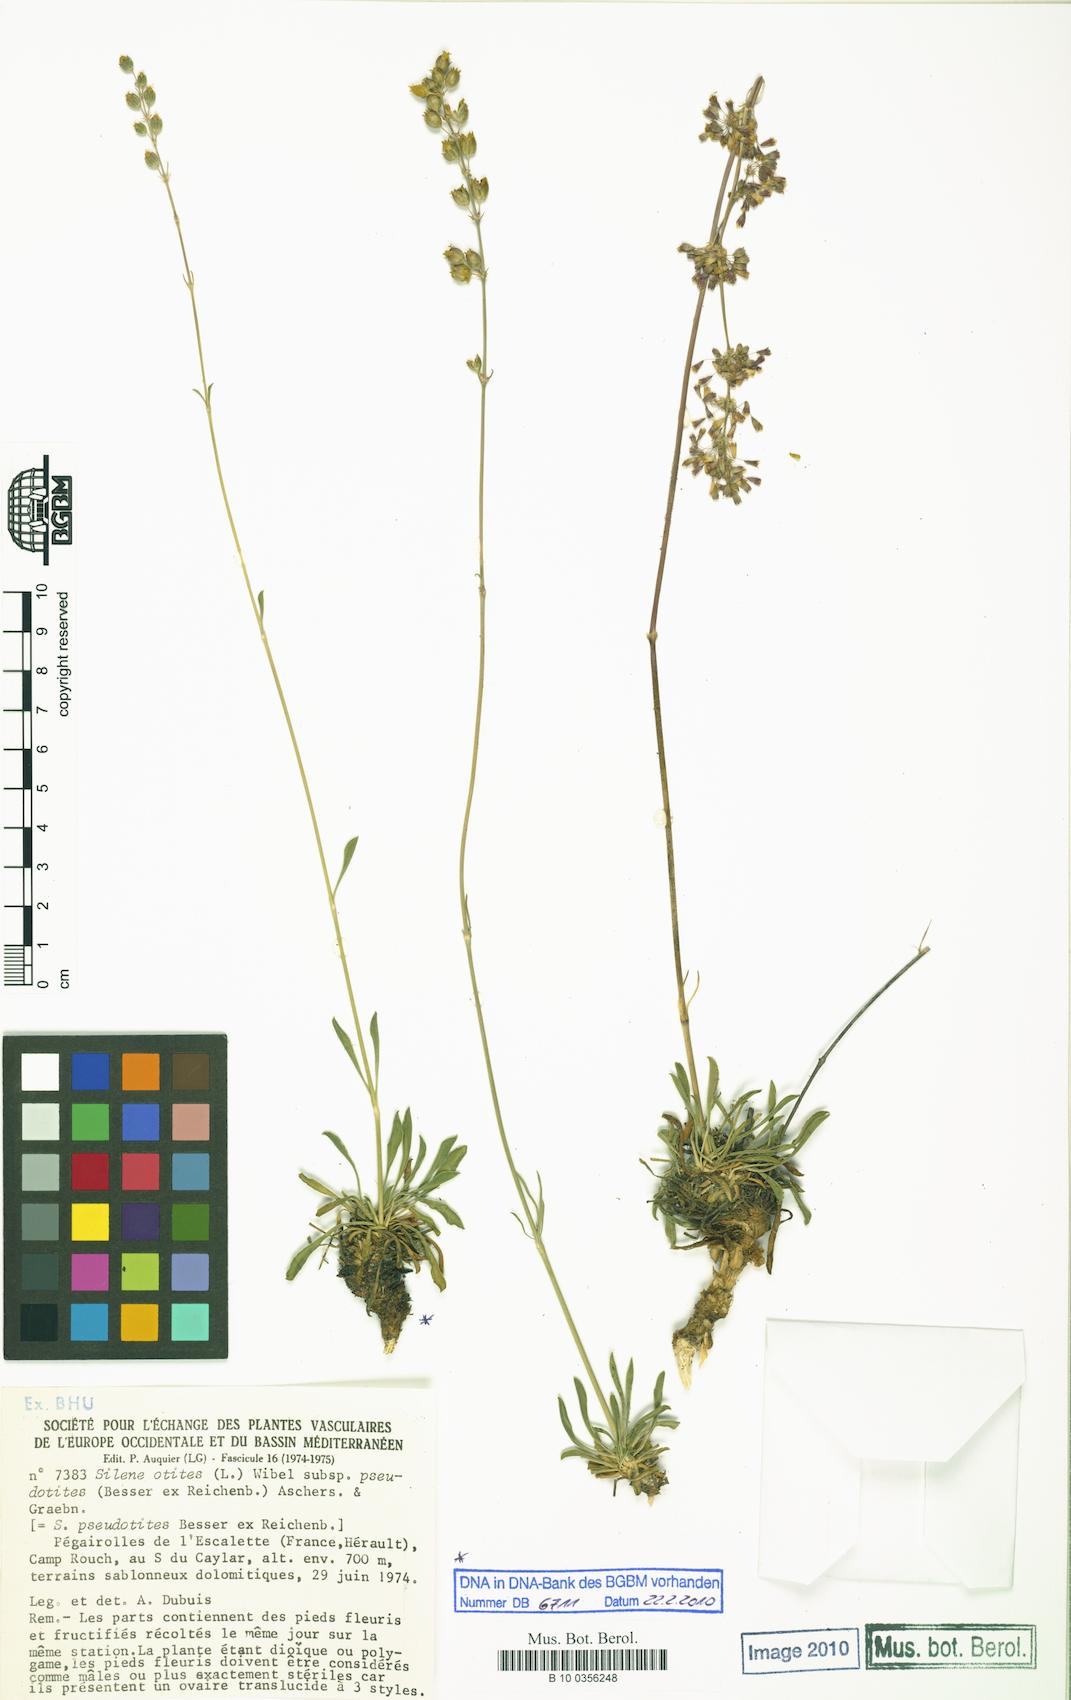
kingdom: Plantae
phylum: Tracheophyta
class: Magnoliopsida
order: Caryophyllales
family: Caryophyllaceae
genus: Silene
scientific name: Silene pseudotites
